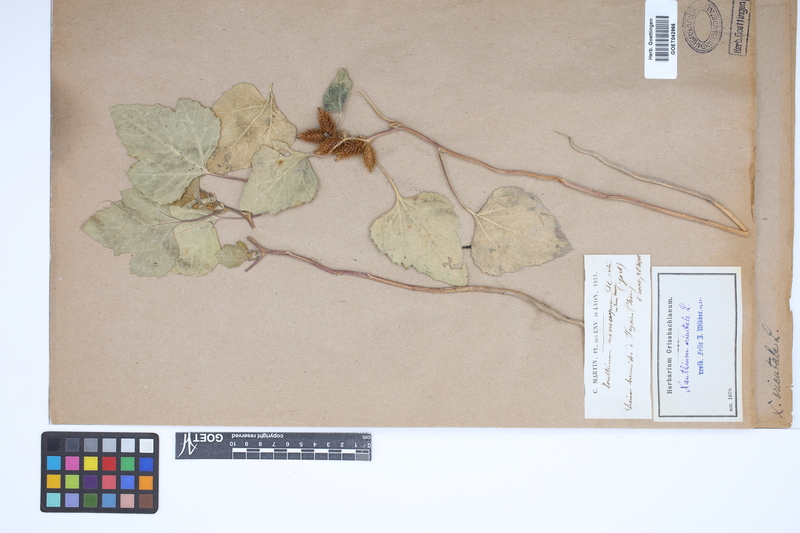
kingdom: Plantae
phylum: Tracheophyta
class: Magnoliopsida
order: Asterales
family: Asteraceae
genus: Xanthium
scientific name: Xanthium orientale
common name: Californian burr
